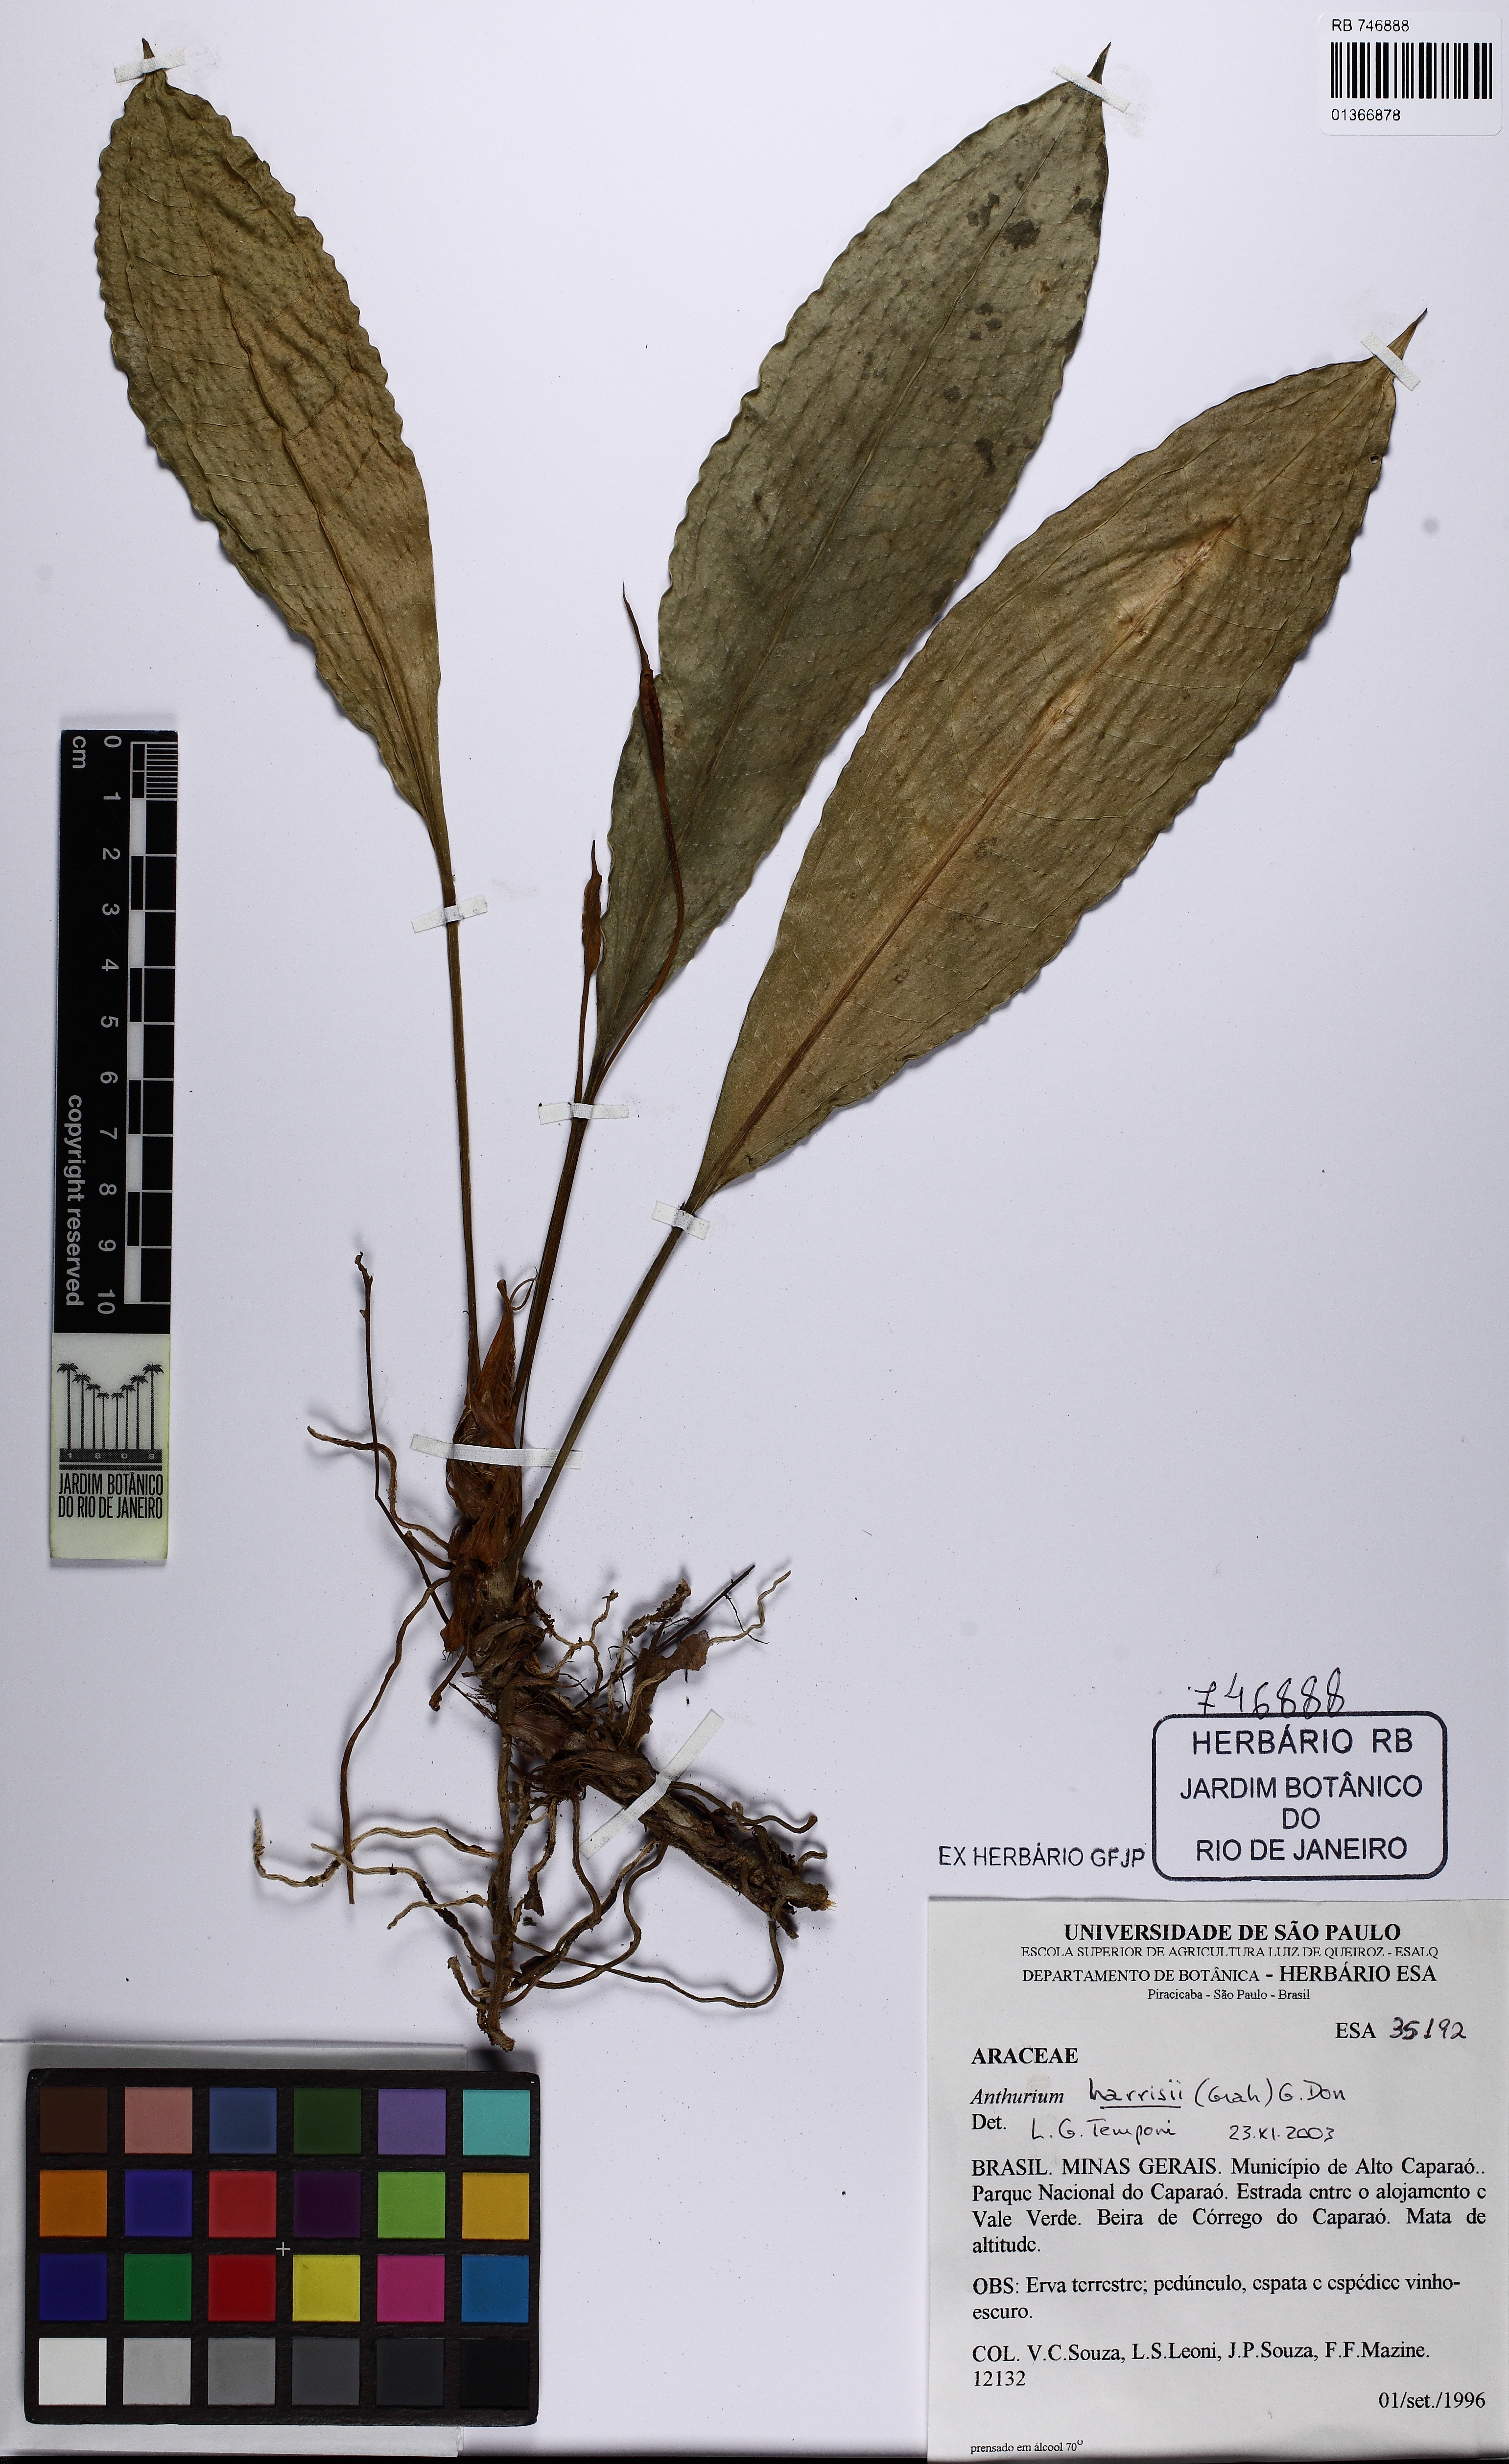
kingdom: Plantae
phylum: Tracheophyta
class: Liliopsida
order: Alismatales
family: Araceae
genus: Anthurium
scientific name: Anthurium harrisii
